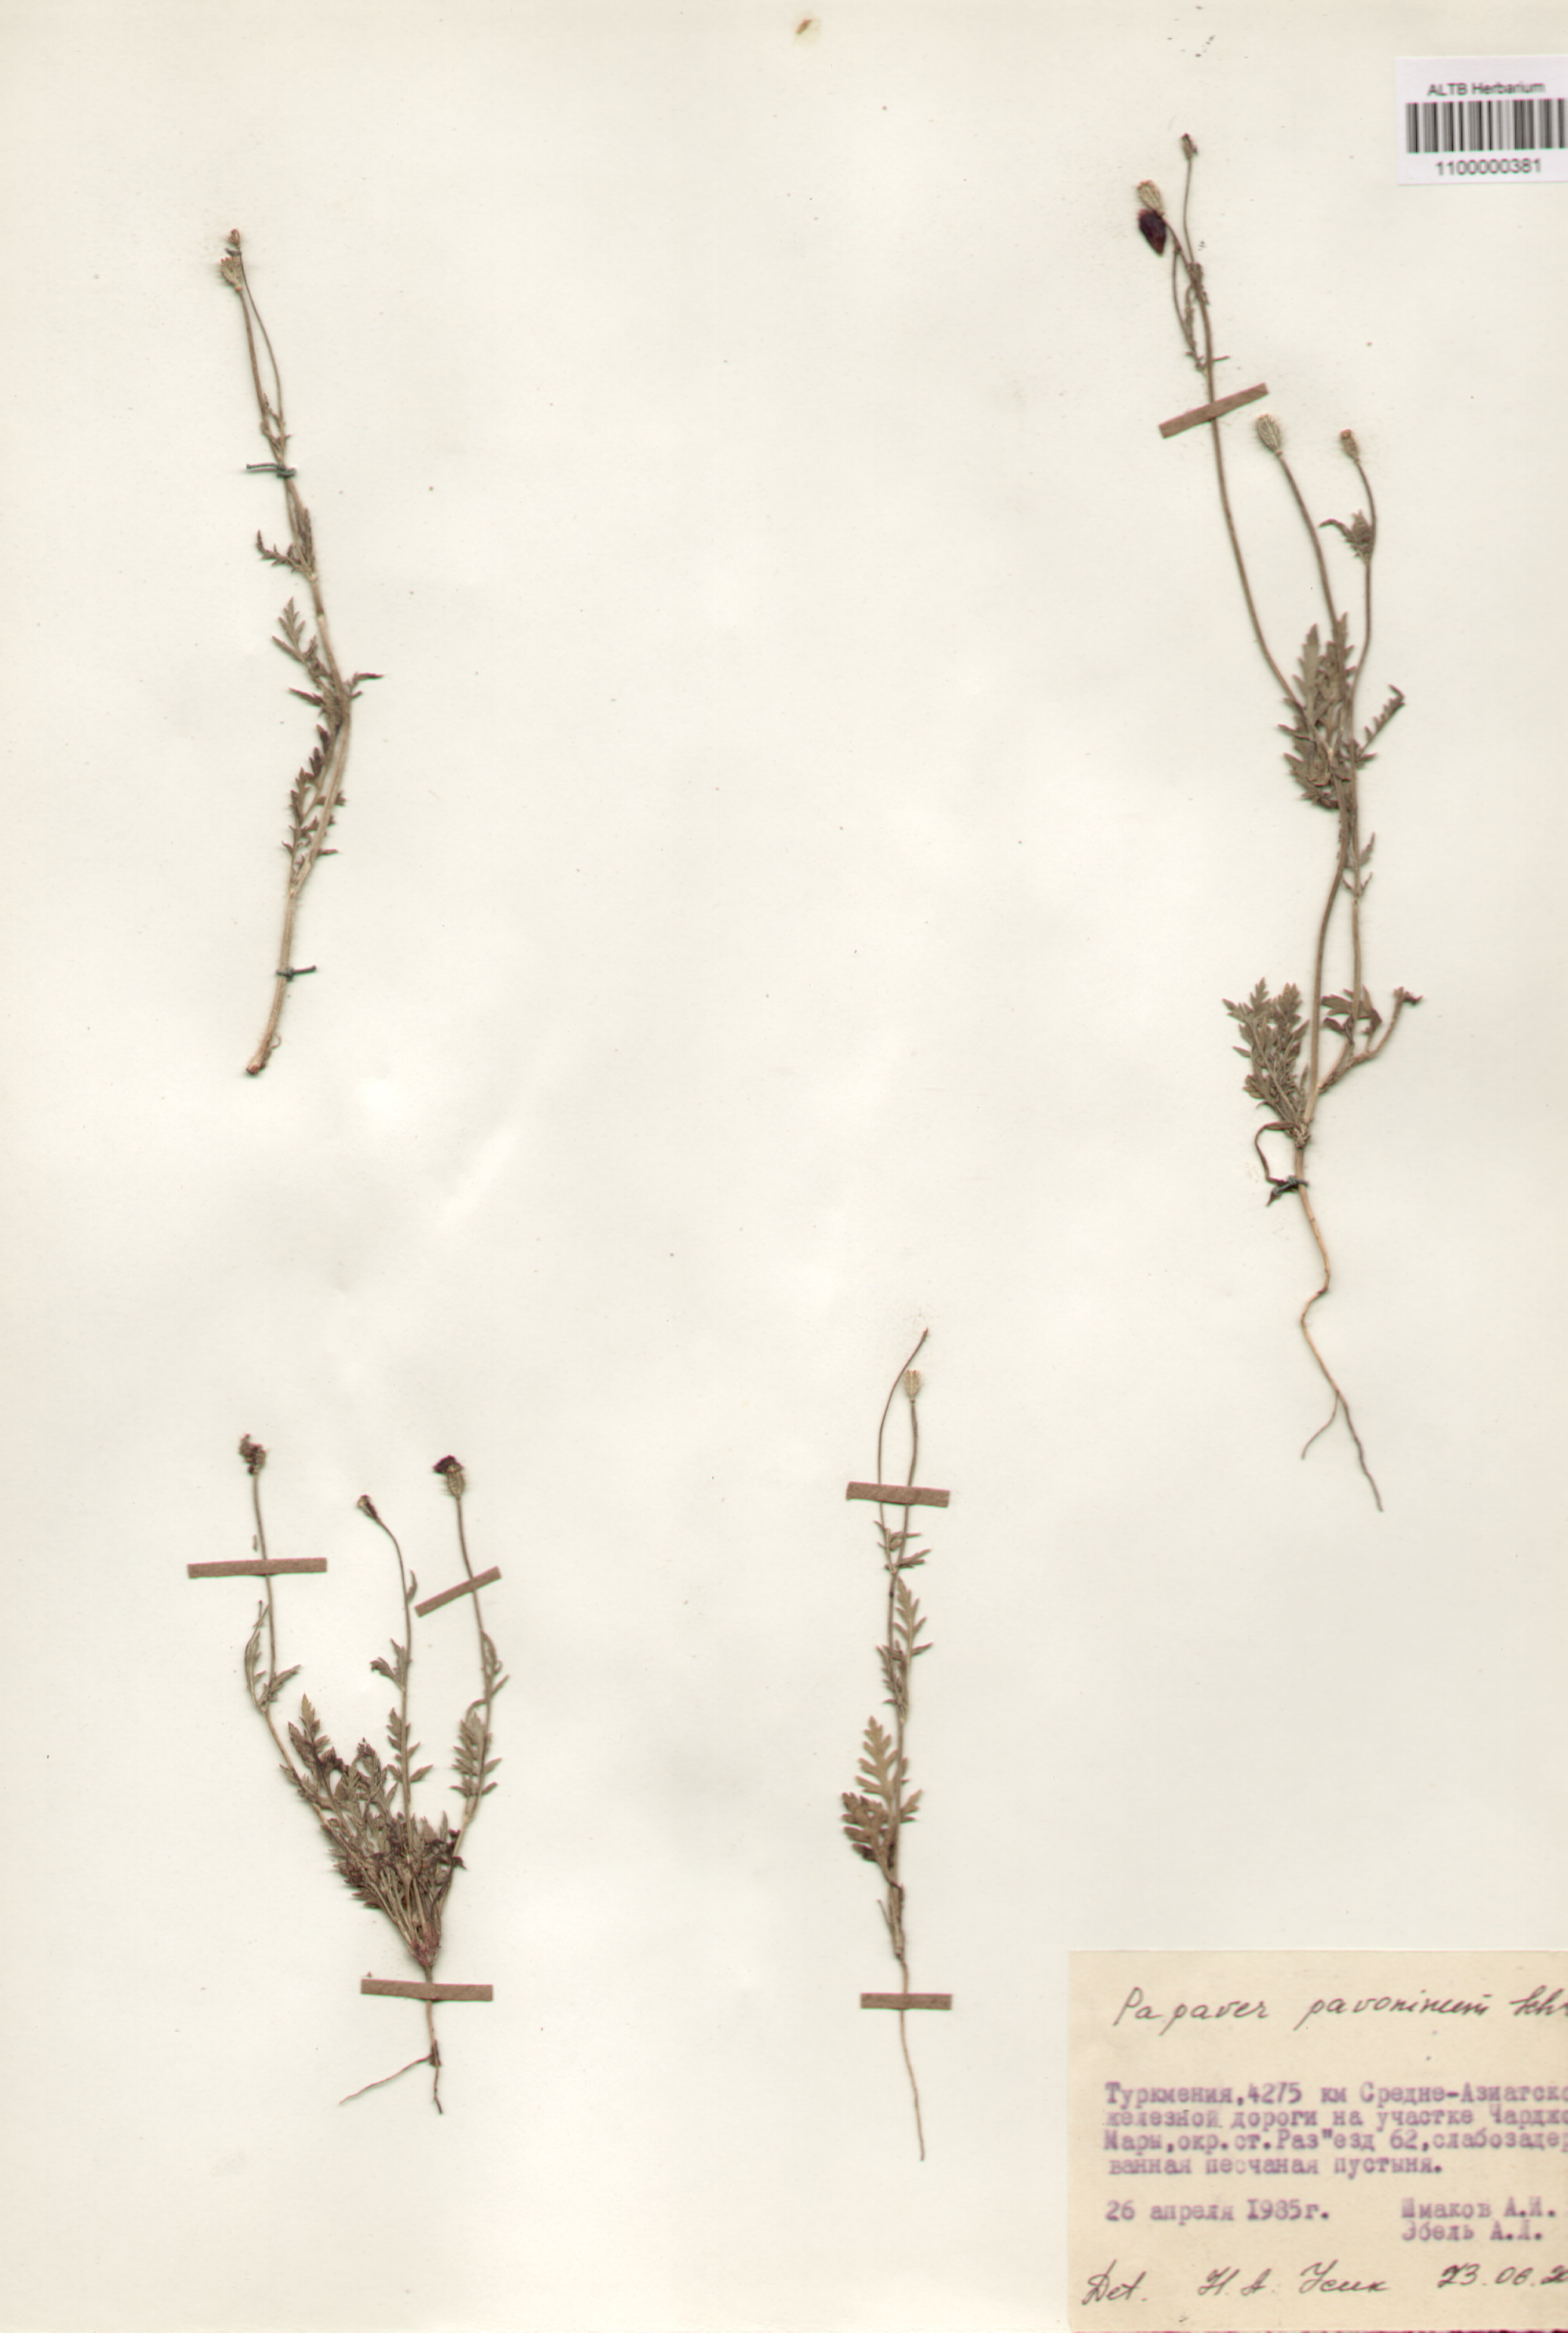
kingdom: Plantae
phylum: Tracheophyta
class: Magnoliopsida
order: Ranunculales
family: Papaveraceae
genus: Papaver
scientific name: Papaver pavoninum
